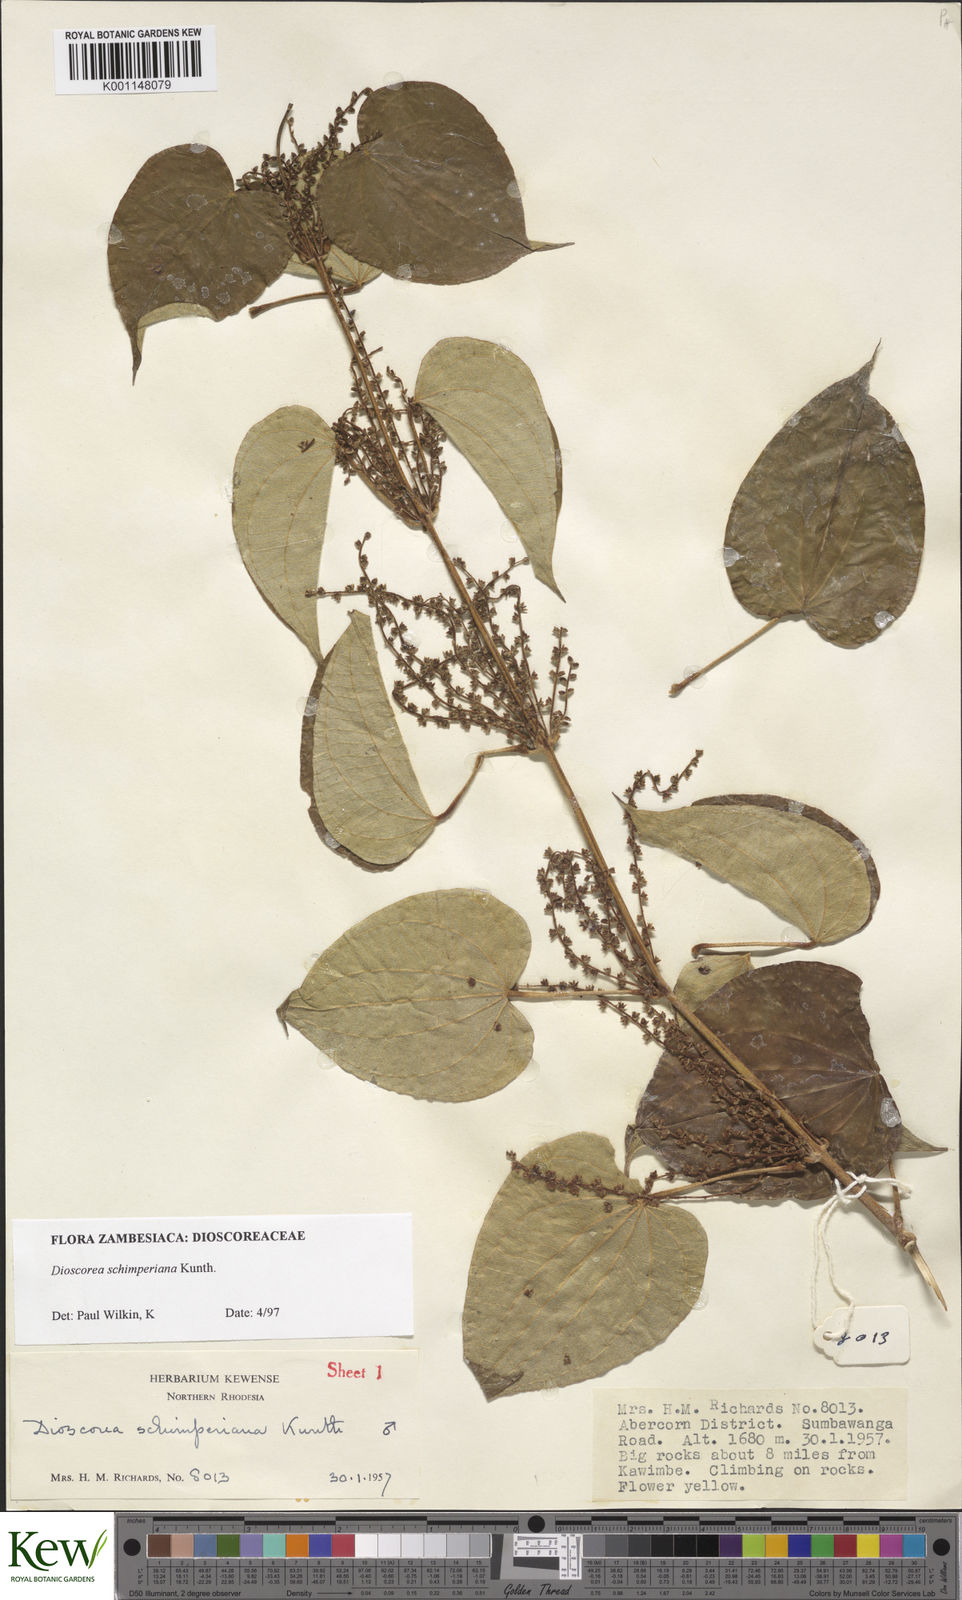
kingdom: Plantae
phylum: Tracheophyta
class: Liliopsida
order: Dioscoreales
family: Dioscoreaceae
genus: Dioscorea
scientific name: Dioscorea schimperiana
